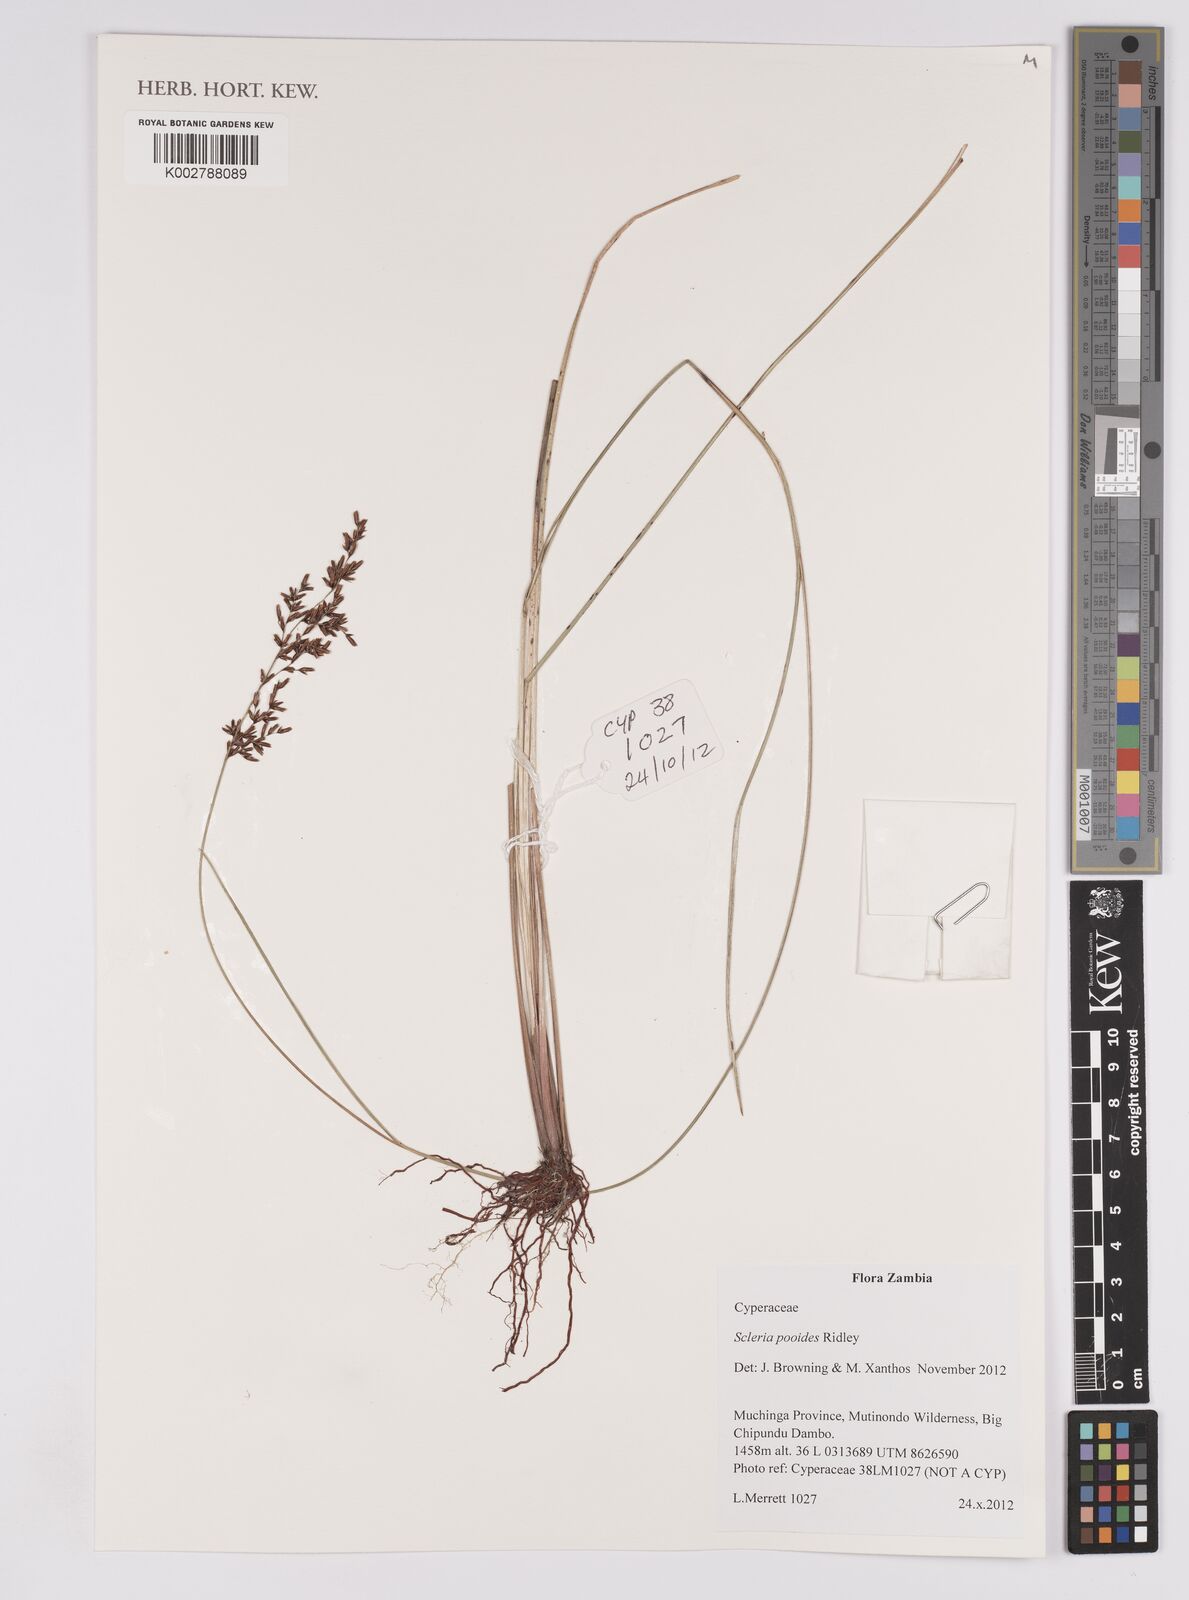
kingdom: Plantae
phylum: Tracheophyta
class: Liliopsida
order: Poales
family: Cyperaceae
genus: Scleria
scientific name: Scleria pooides
